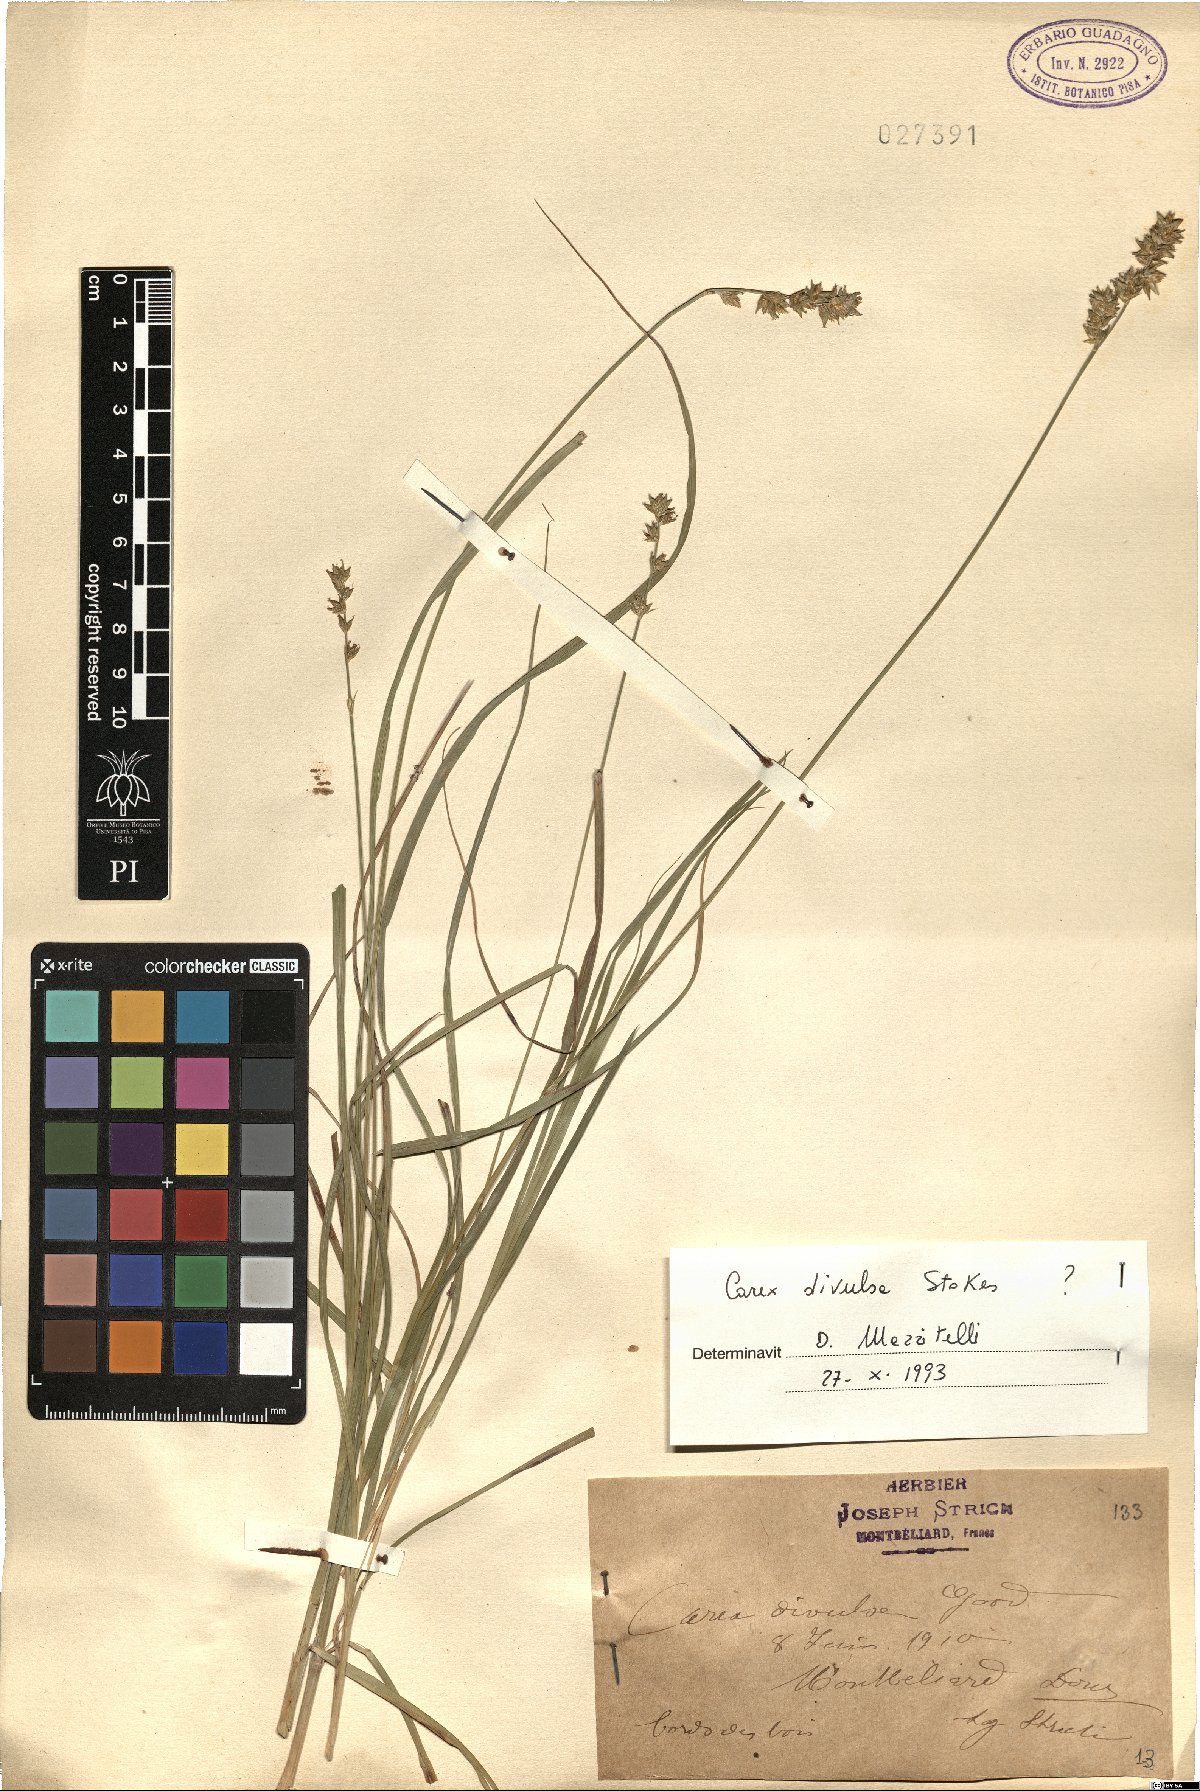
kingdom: Plantae
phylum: Tracheophyta
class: Liliopsida
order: Poales
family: Cyperaceae
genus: Carex
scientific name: Carex divulsa
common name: Grassland sedge
